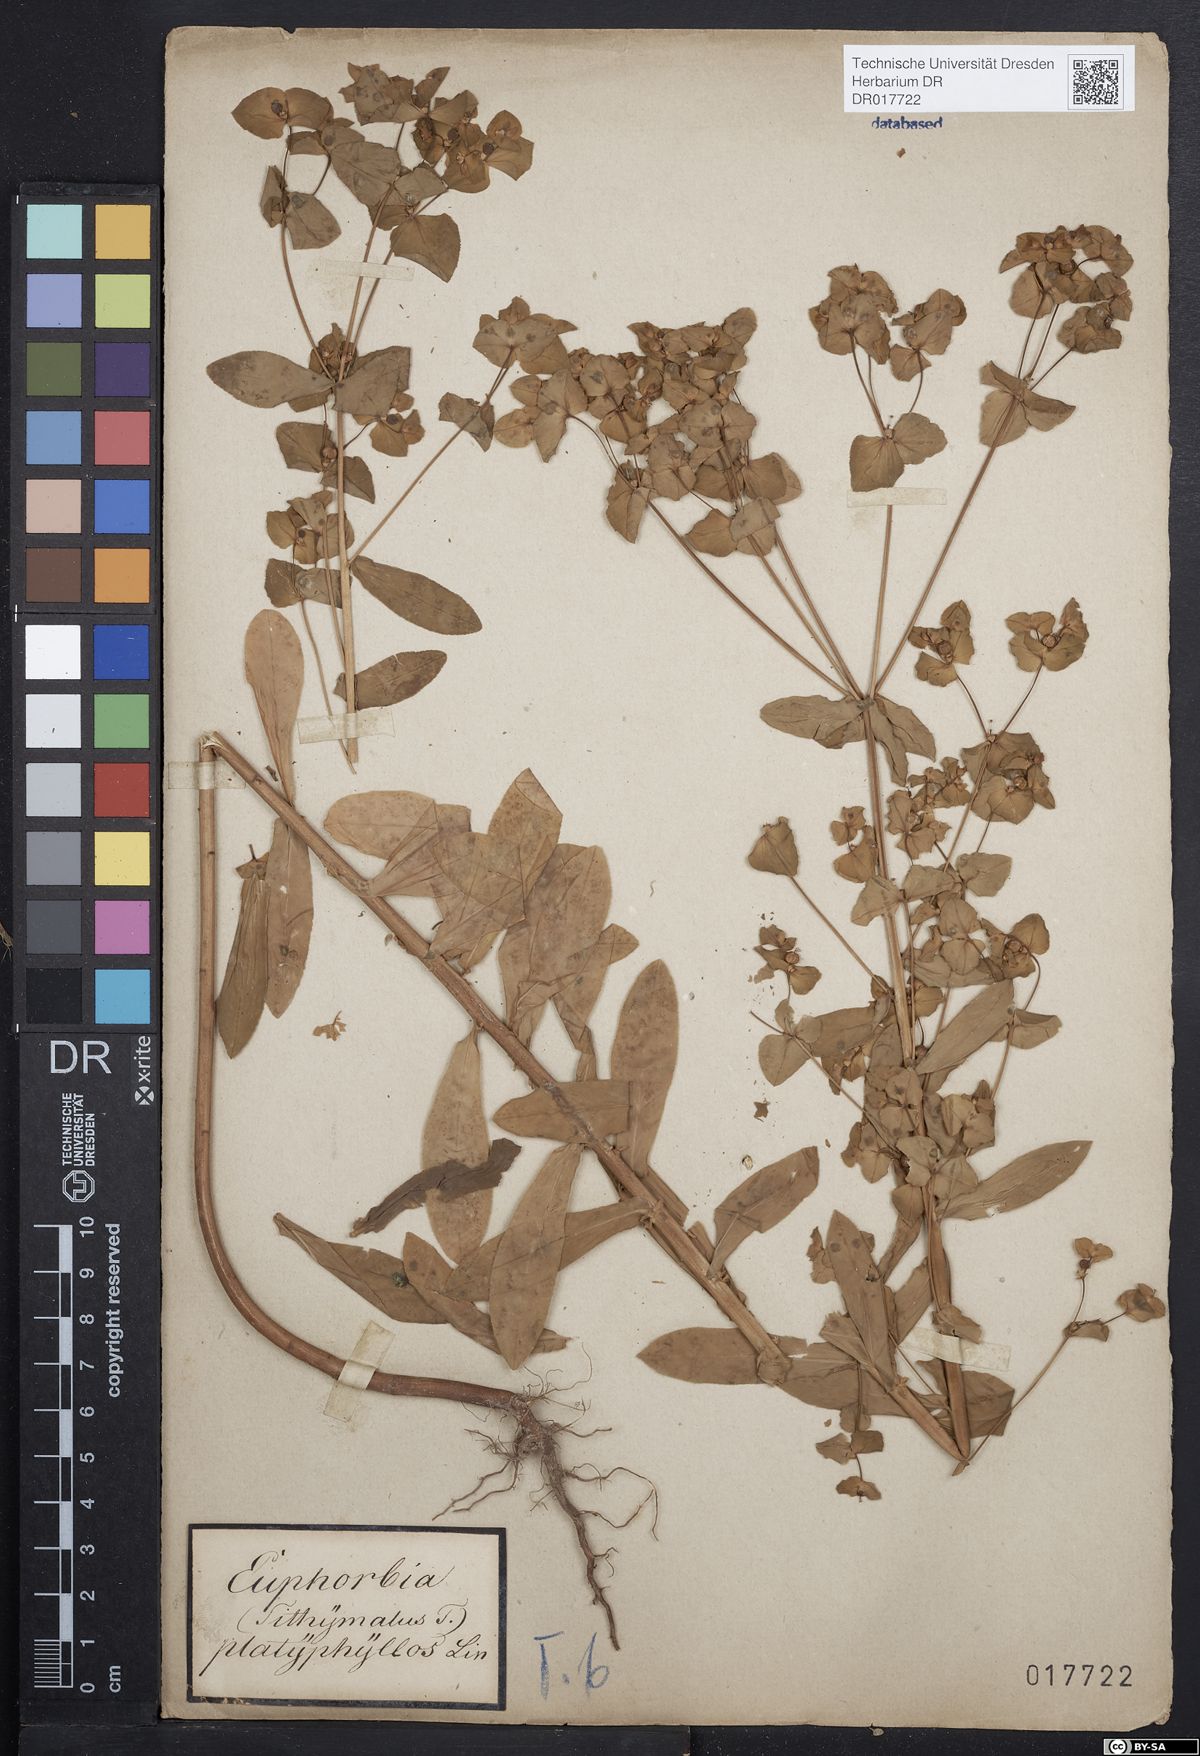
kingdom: Plantae
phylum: Tracheophyta
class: Magnoliopsida
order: Malpighiales
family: Euphorbiaceae
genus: Euphorbia
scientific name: Euphorbia platyphyllos
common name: Broad-leaved spurge
